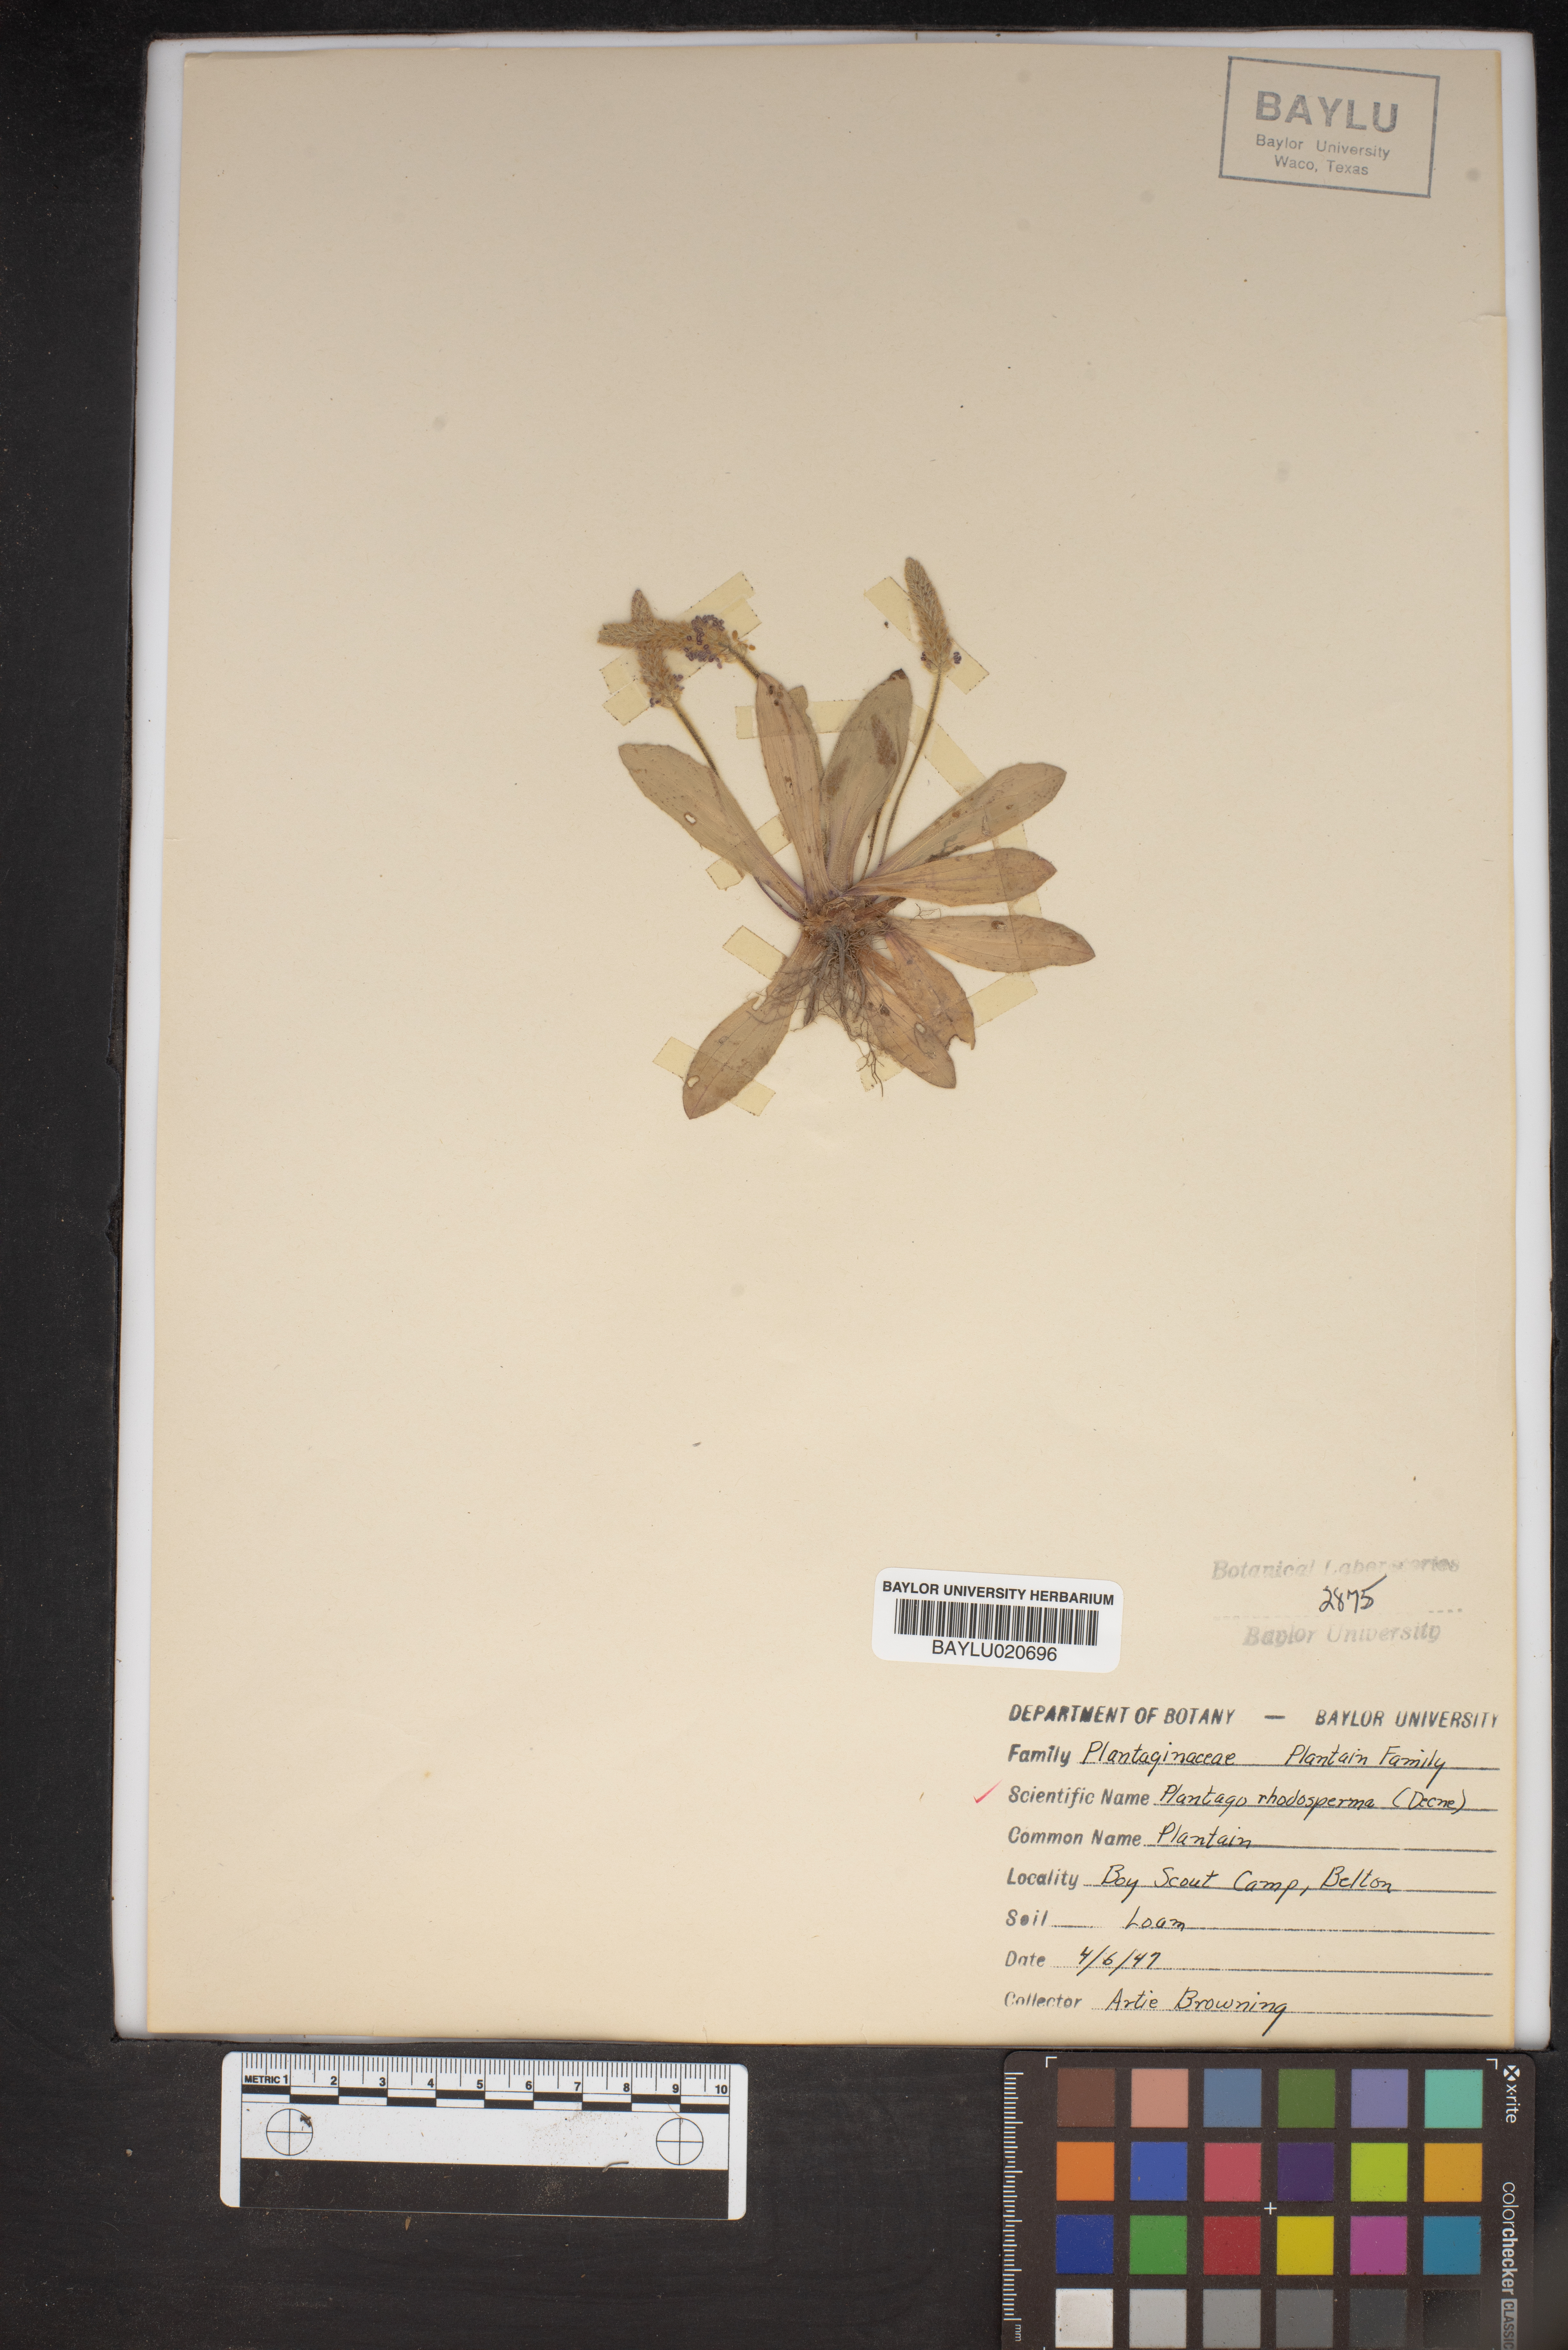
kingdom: Plantae
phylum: Tracheophyta
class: Magnoliopsida
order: Lamiales
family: Plantaginaceae
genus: Plantago
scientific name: Plantago rhodosperma
